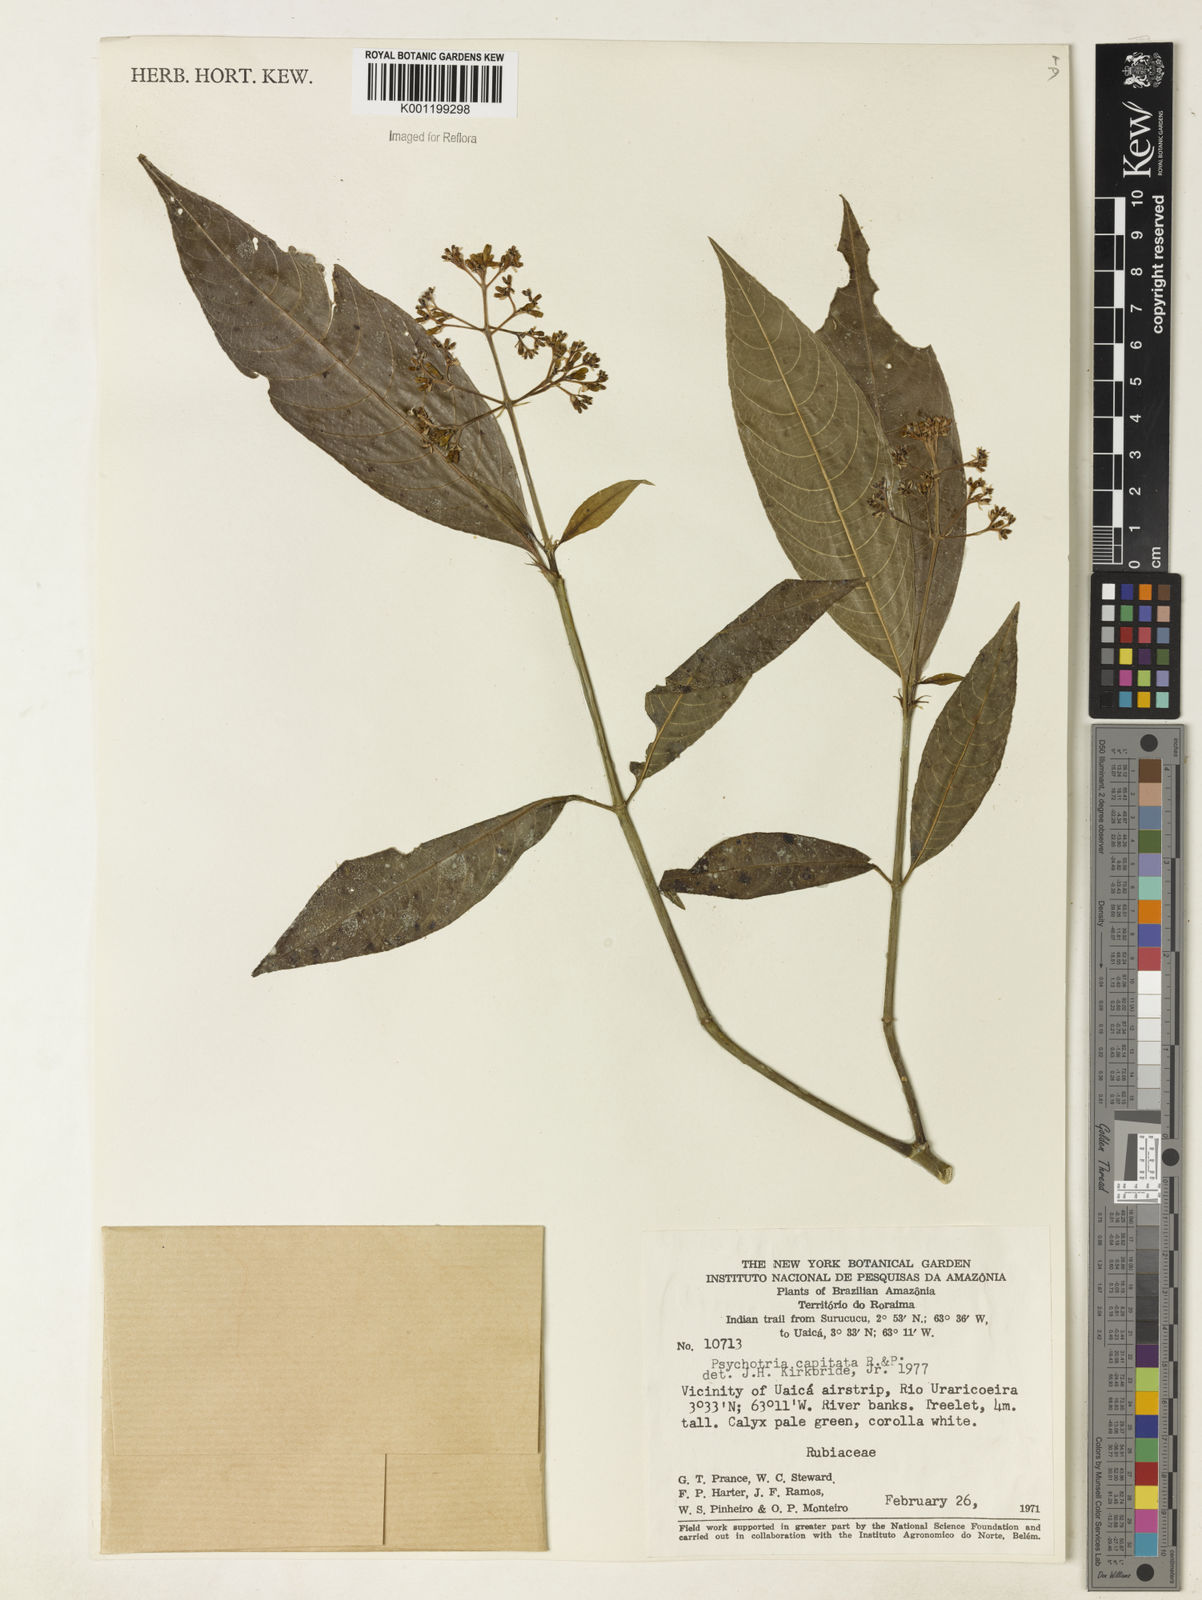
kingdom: Plantae
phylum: Tracheophyta
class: Magnoliopsida
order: Gentianales
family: Rubiaceae
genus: Palicourea
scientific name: Palicourea violacea
